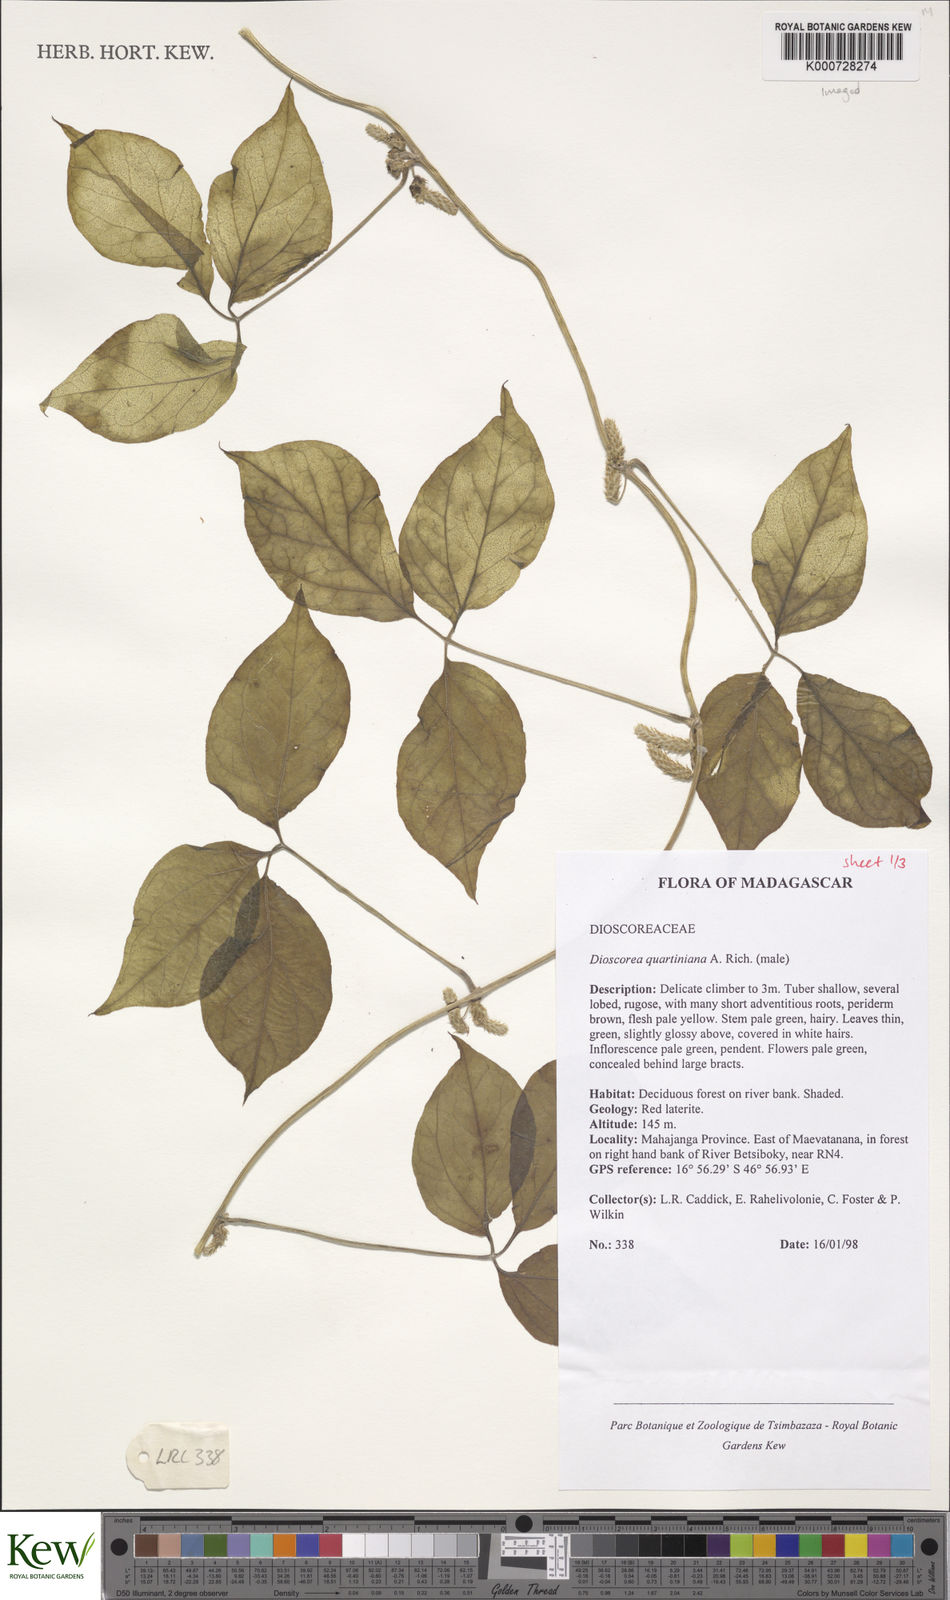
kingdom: Plantae
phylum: Tracheophyta
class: Liliopsida
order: Dioscoreales
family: Dioscoreaceae
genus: Dioscorea
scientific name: Dioscorea quartiniana
